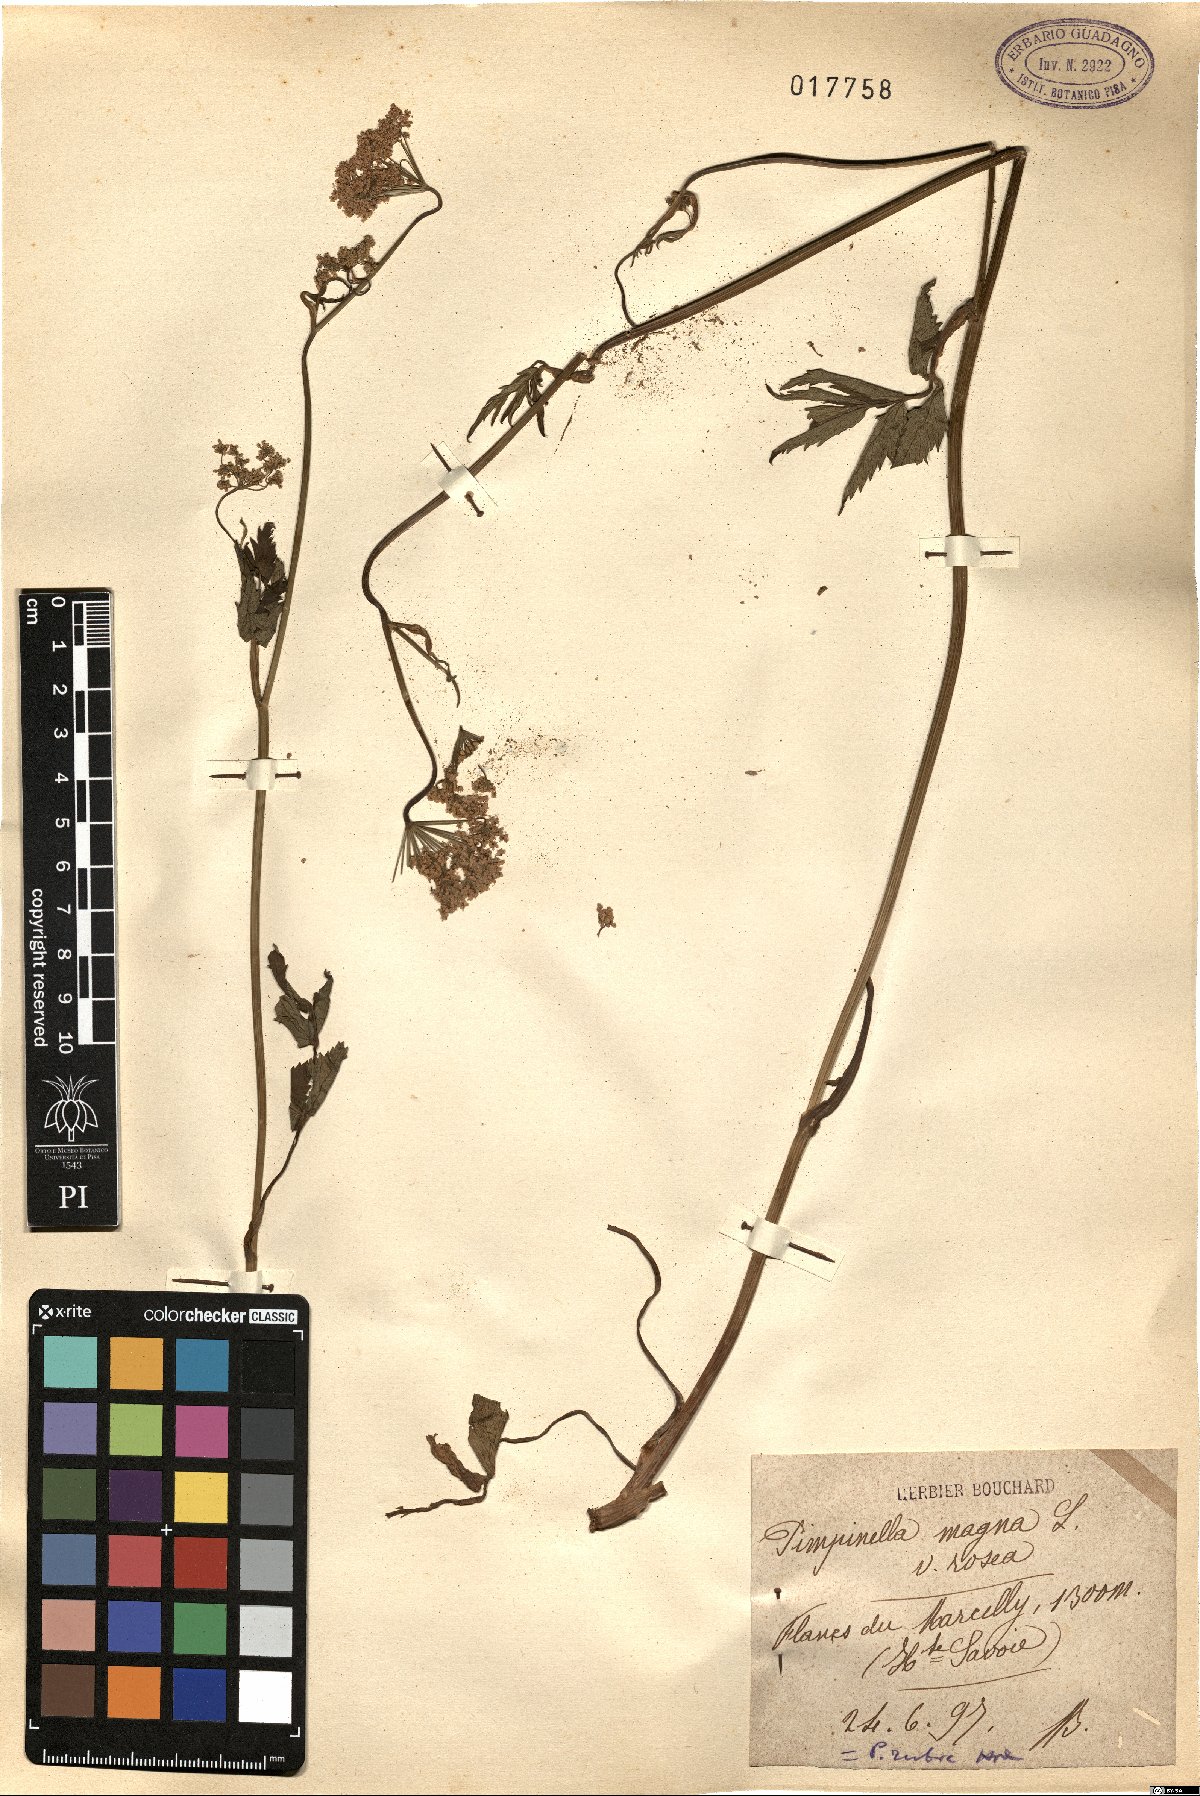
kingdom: Plantae
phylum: Tracheophyta
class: Magnoliopsida
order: Apiales
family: Apiaceae
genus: Pimpinella
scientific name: Pimpinella major
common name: Greater burnet-saxifrage
